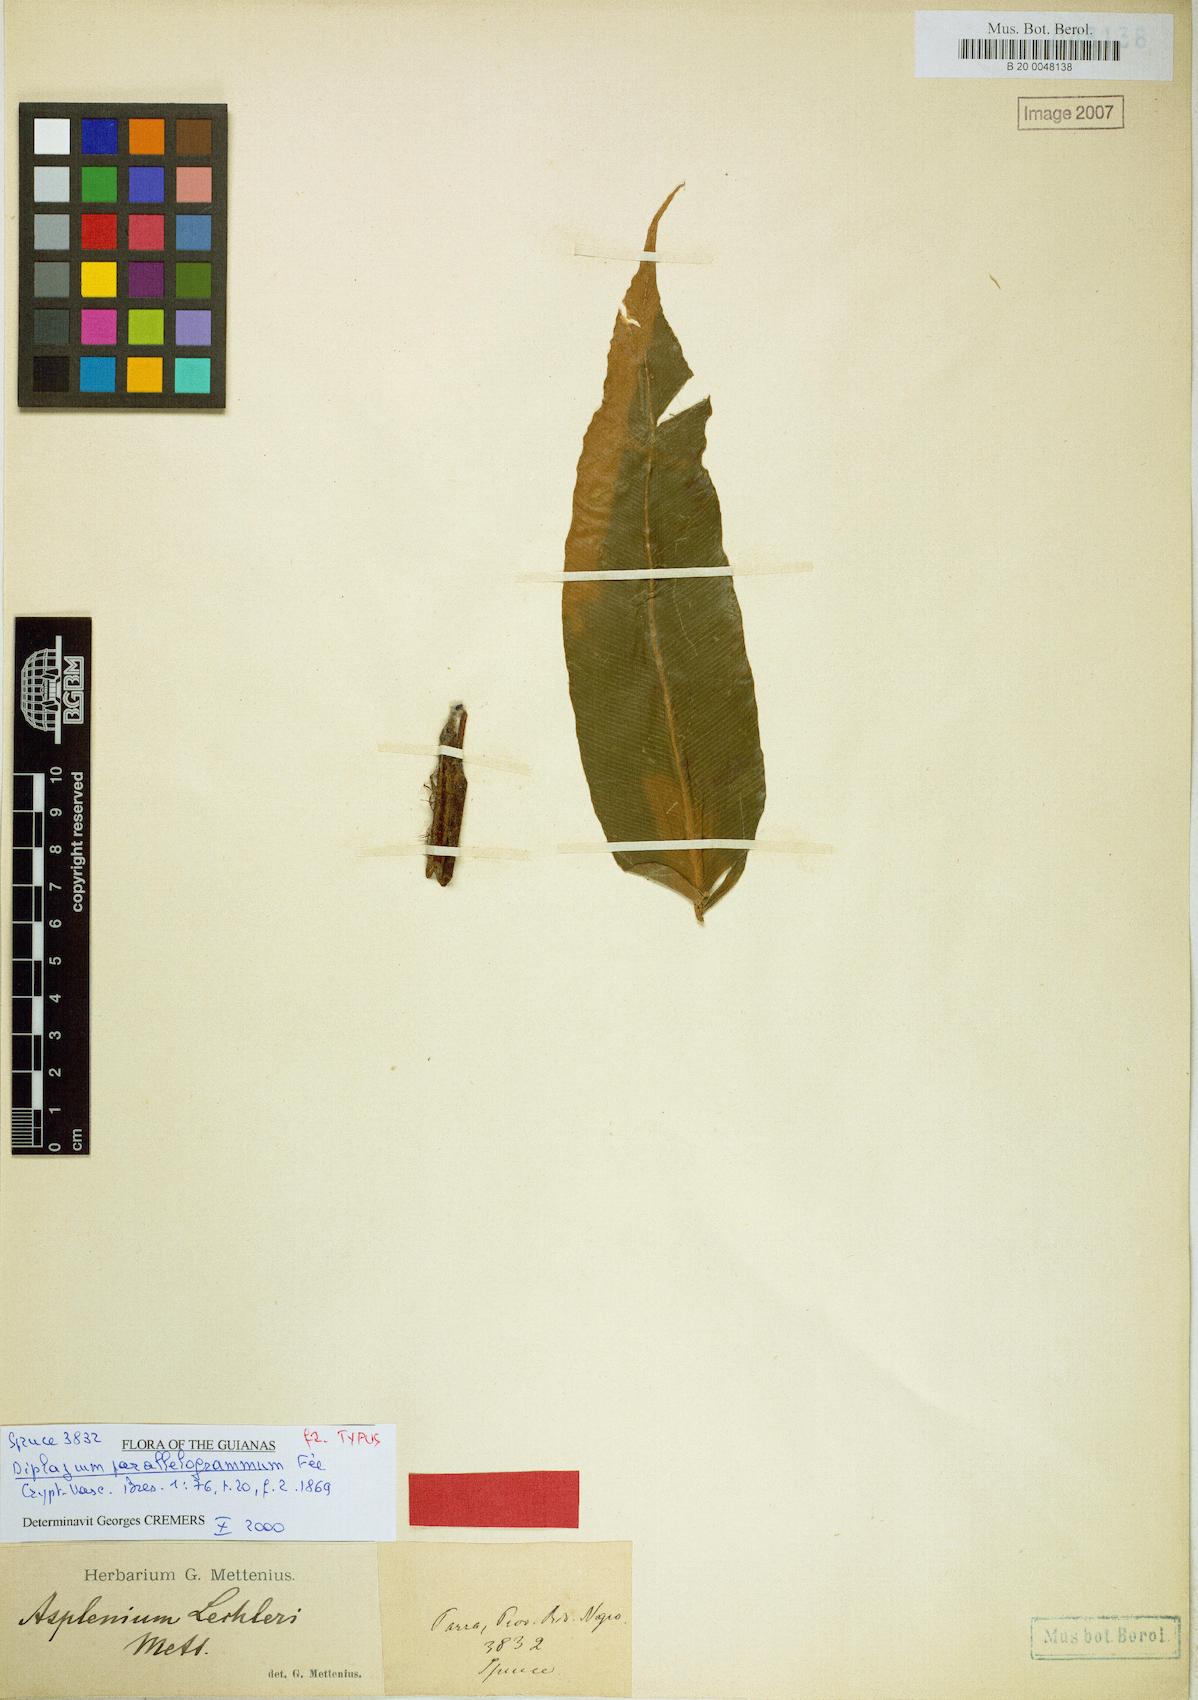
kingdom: Plantae
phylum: Tracheophyta
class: Polypodiopsida
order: Polypodiales
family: Desmophlebiaceae
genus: Desmophlebium
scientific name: Desmophlebium lechleri
